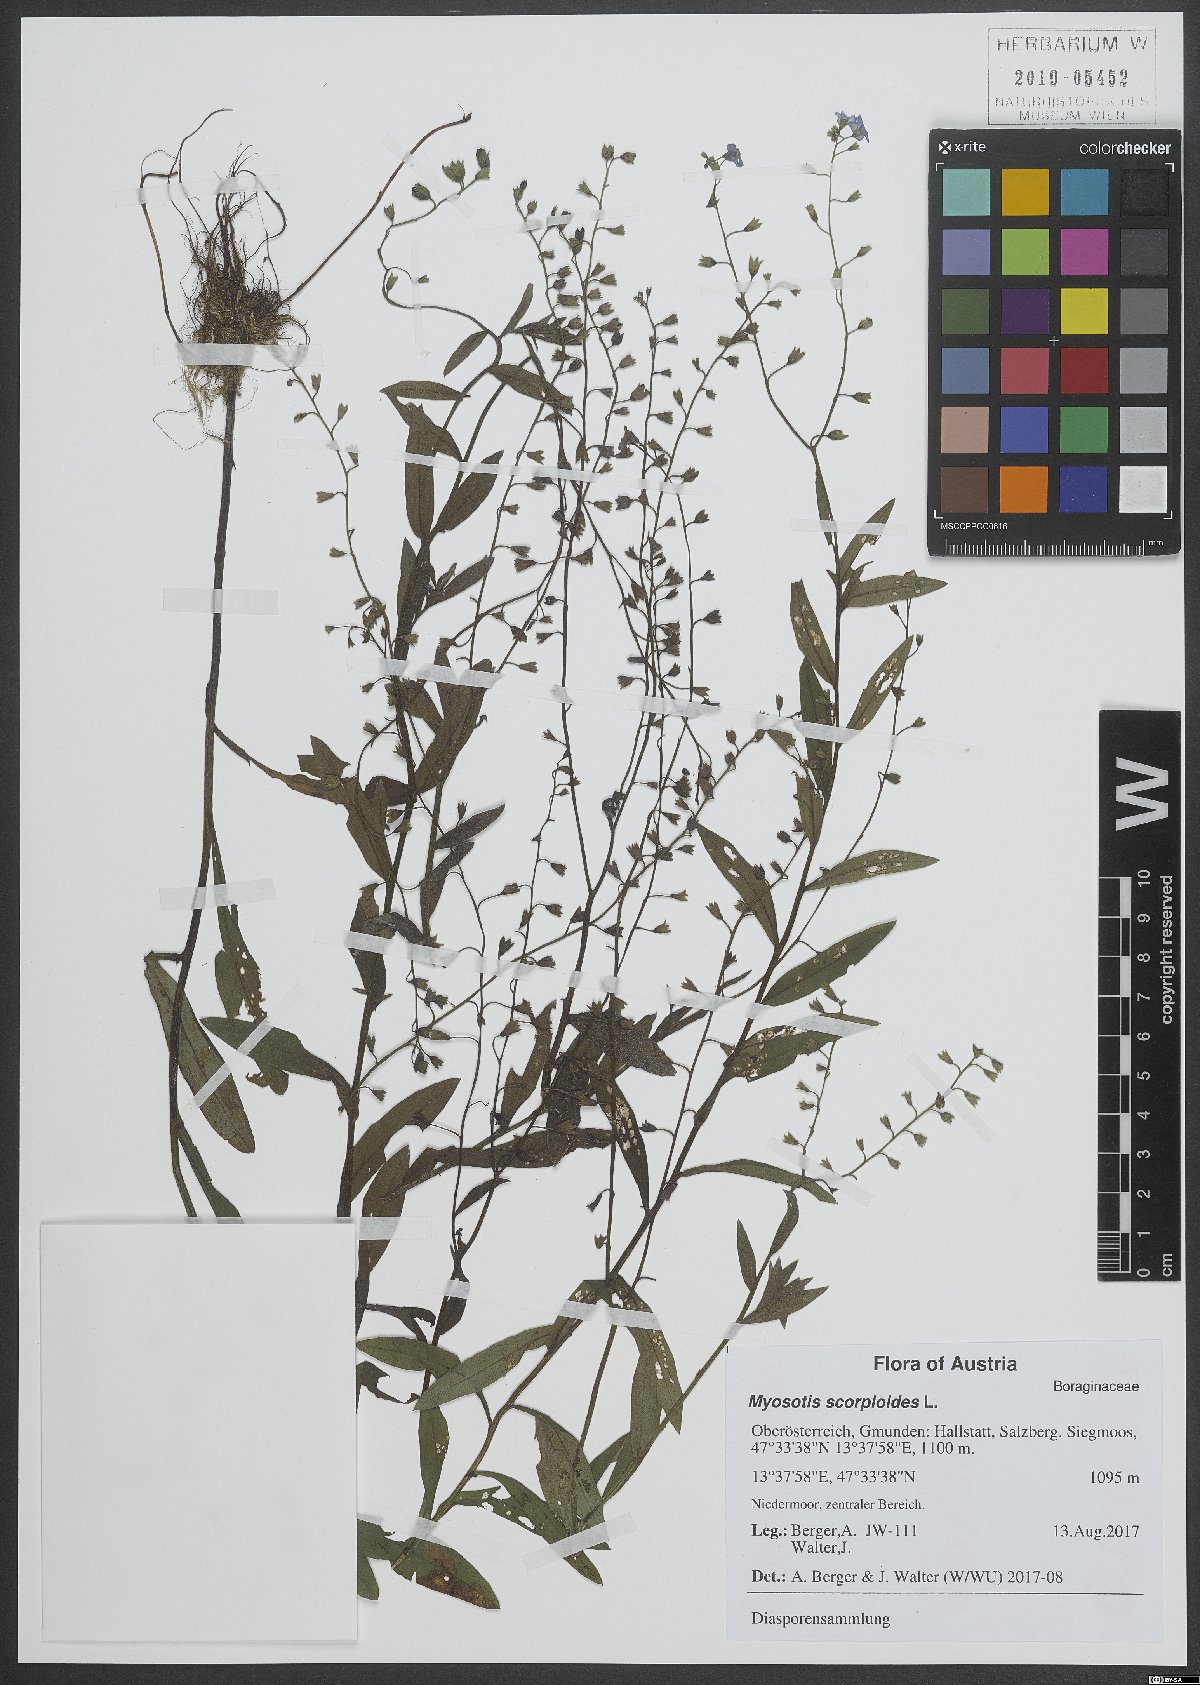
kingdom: Plantae
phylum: Tracheophyta
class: Magnoliopsida
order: Boraginales
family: Boraginaceae
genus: Myosotis
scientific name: Myosotis scorpioides
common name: Water forget-me-not
